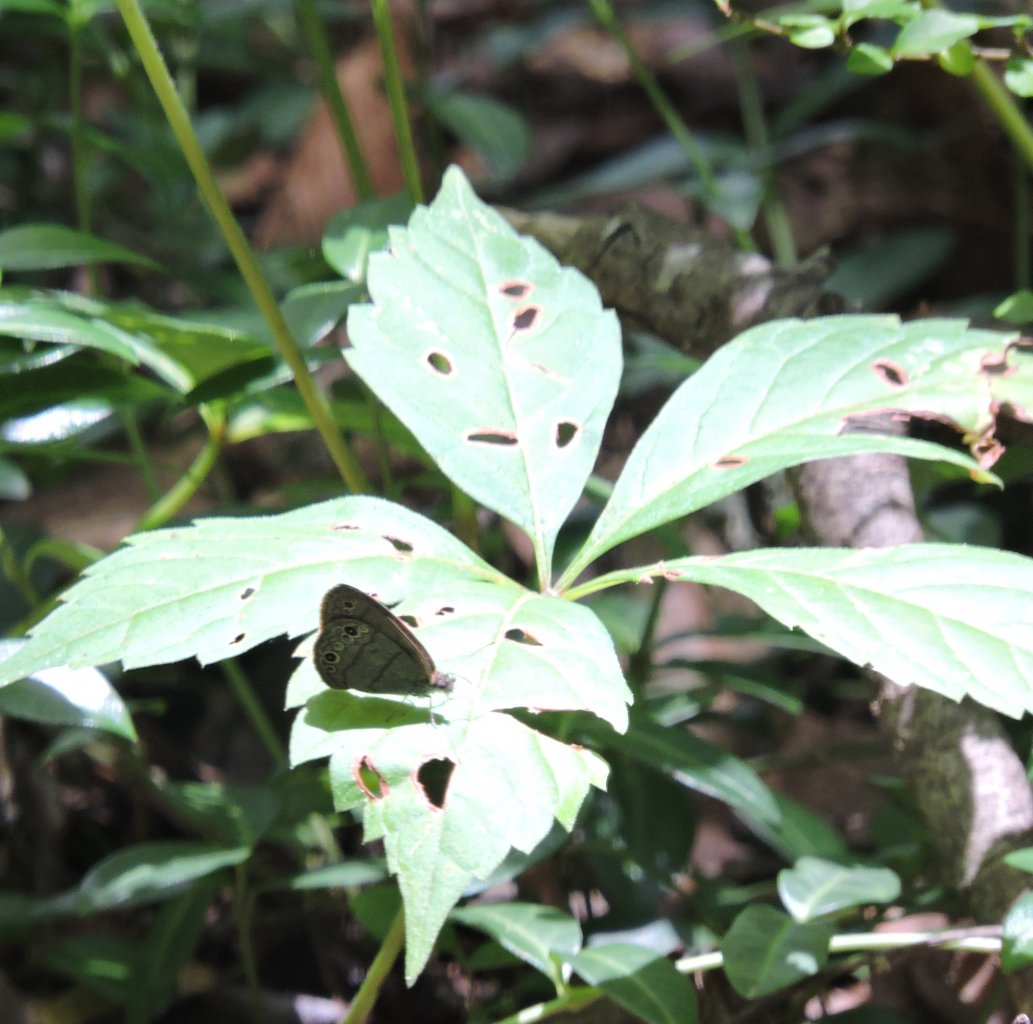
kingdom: Animalia
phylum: Arthropoda
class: Insecta
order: Lepidoptera
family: Nymphalidae
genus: Hermeuptychia
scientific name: Hermeuptychia hermes
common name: Carolina Satyr
